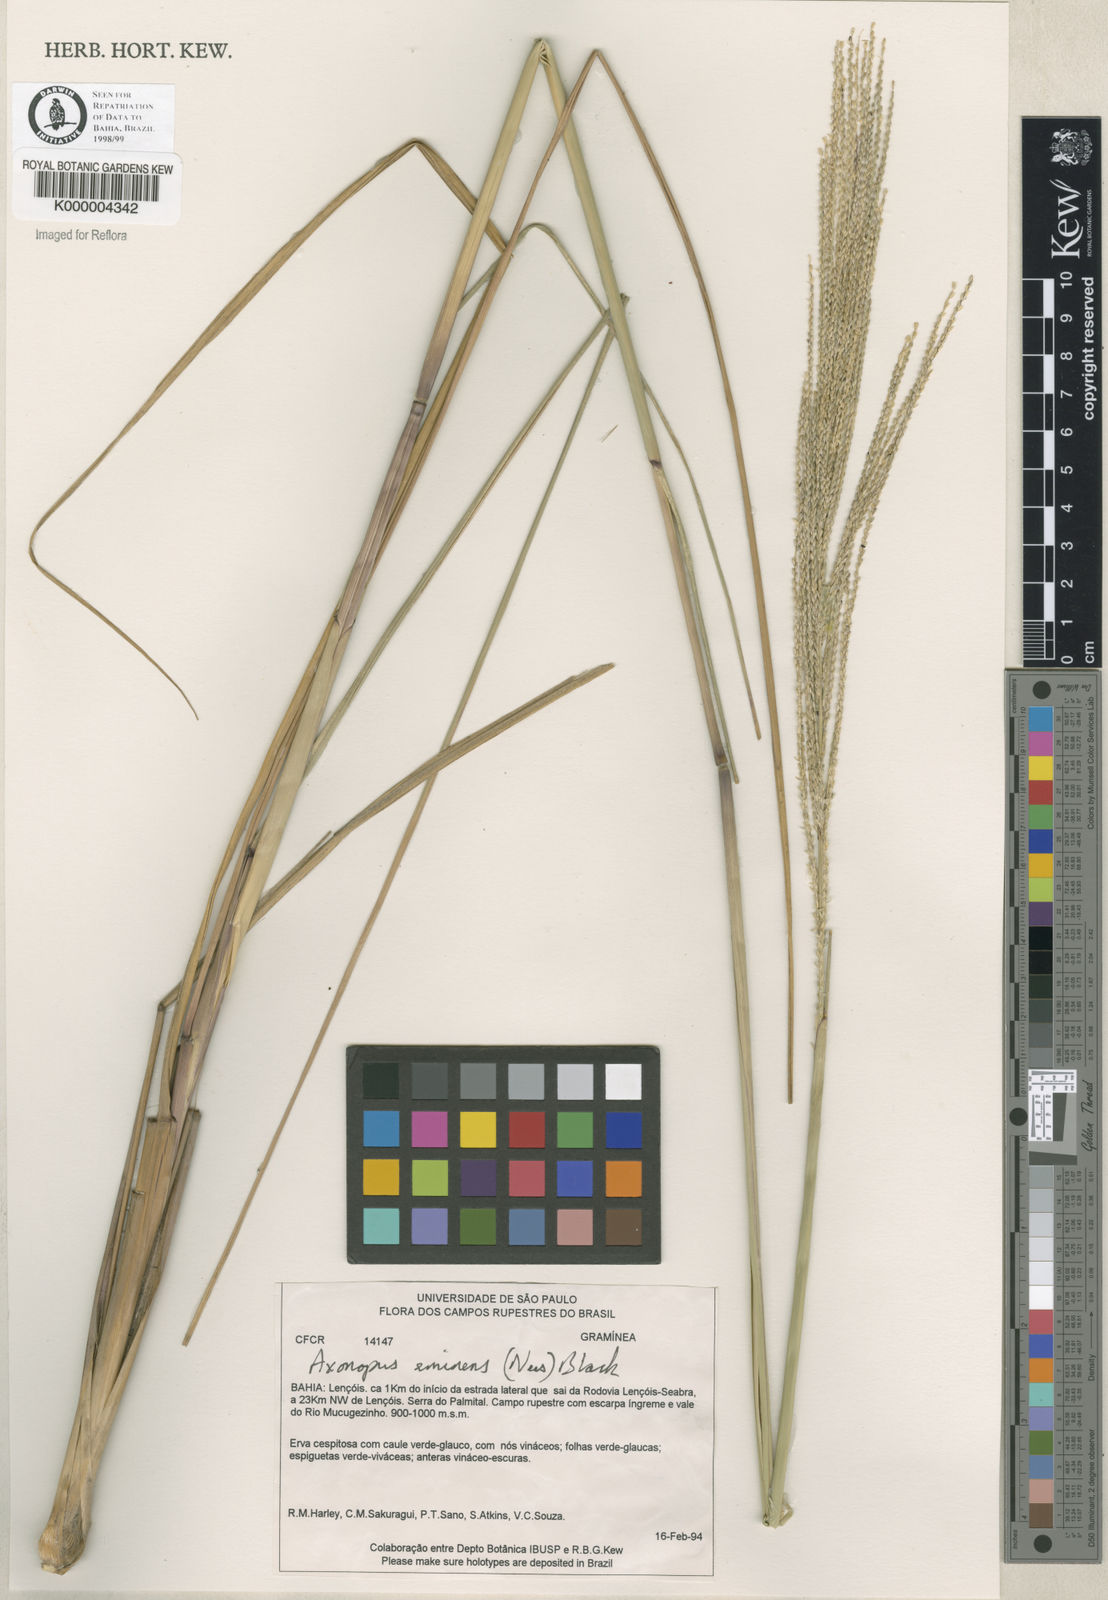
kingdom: Plantae
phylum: Tracheophyta
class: Liliopsida
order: Poales
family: Poaceae
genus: Axonopus
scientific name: Axonopus eminens
